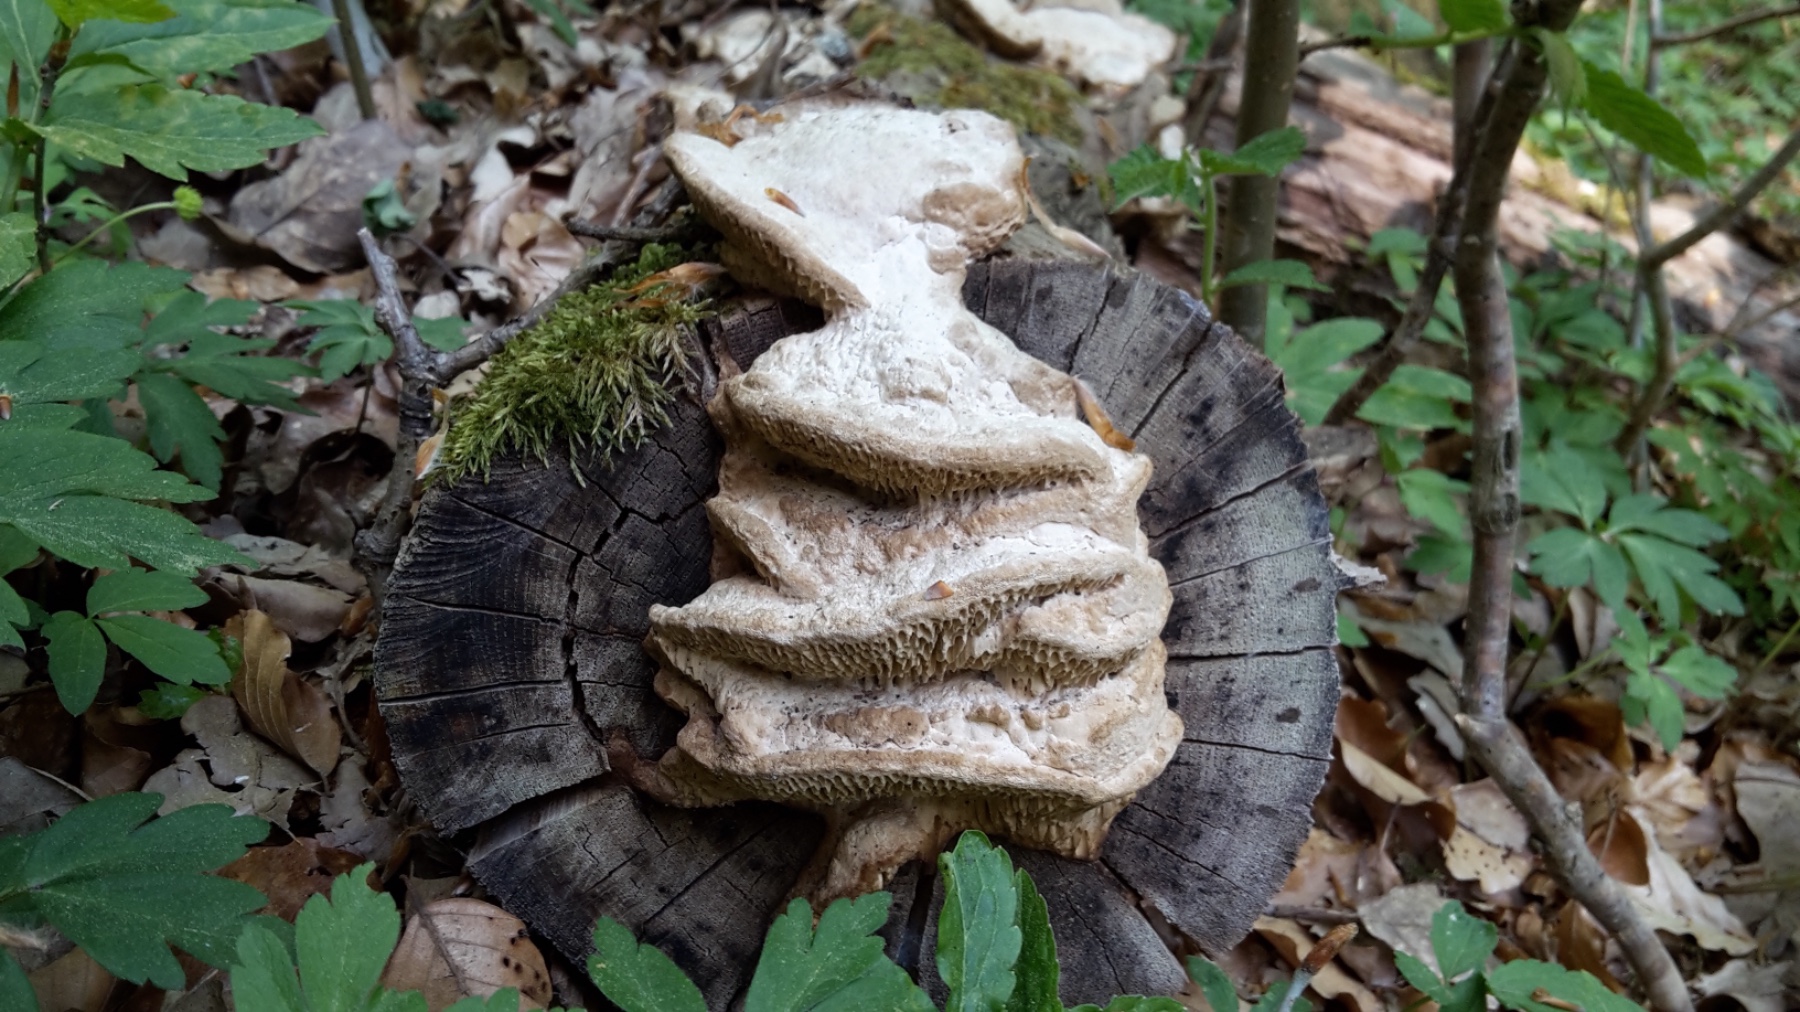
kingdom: Fungi
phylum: Basidiomycota
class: Agaricomycetes
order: Polyporales
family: Fomitopsidaceae
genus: Daedalea
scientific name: Daedalea quercina
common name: ege-labyrintsvamp
